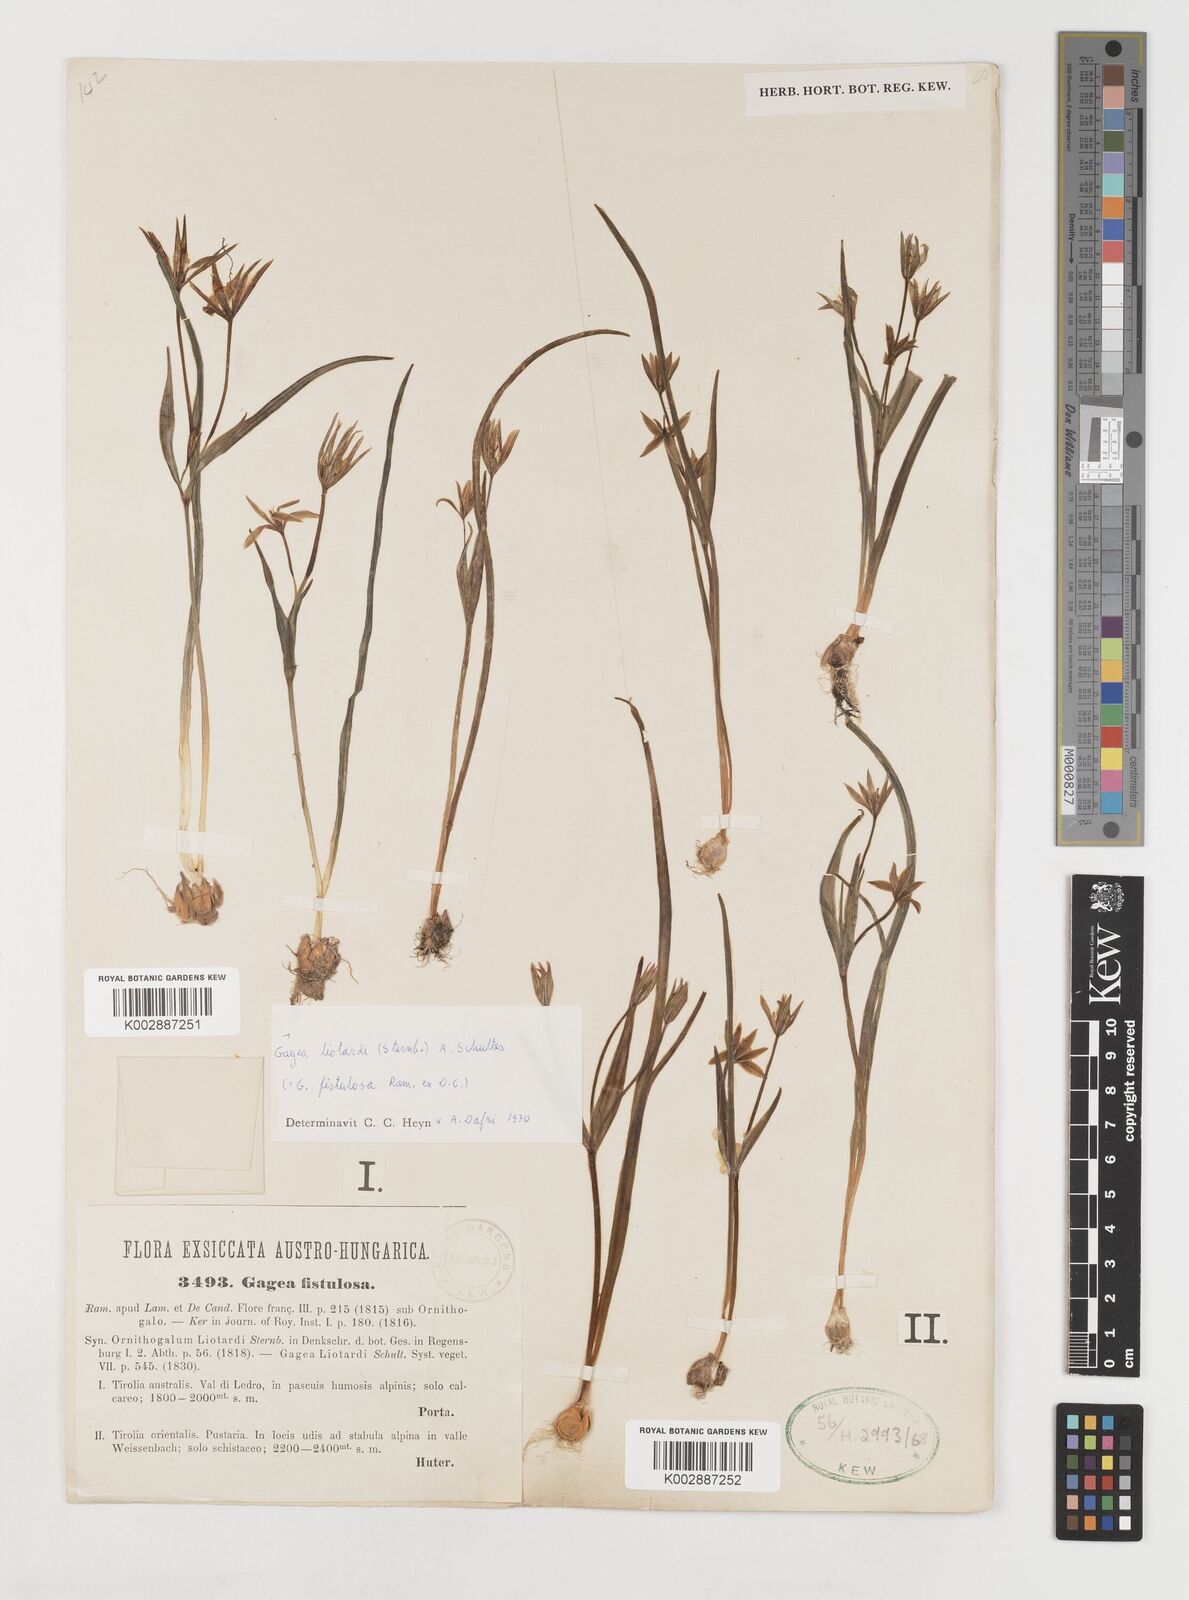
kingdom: Plantae
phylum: Tracheophyta
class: Liliopsida
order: Liliales
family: Liliaceae
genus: Gagea
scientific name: Gagea fragifera
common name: Lily
